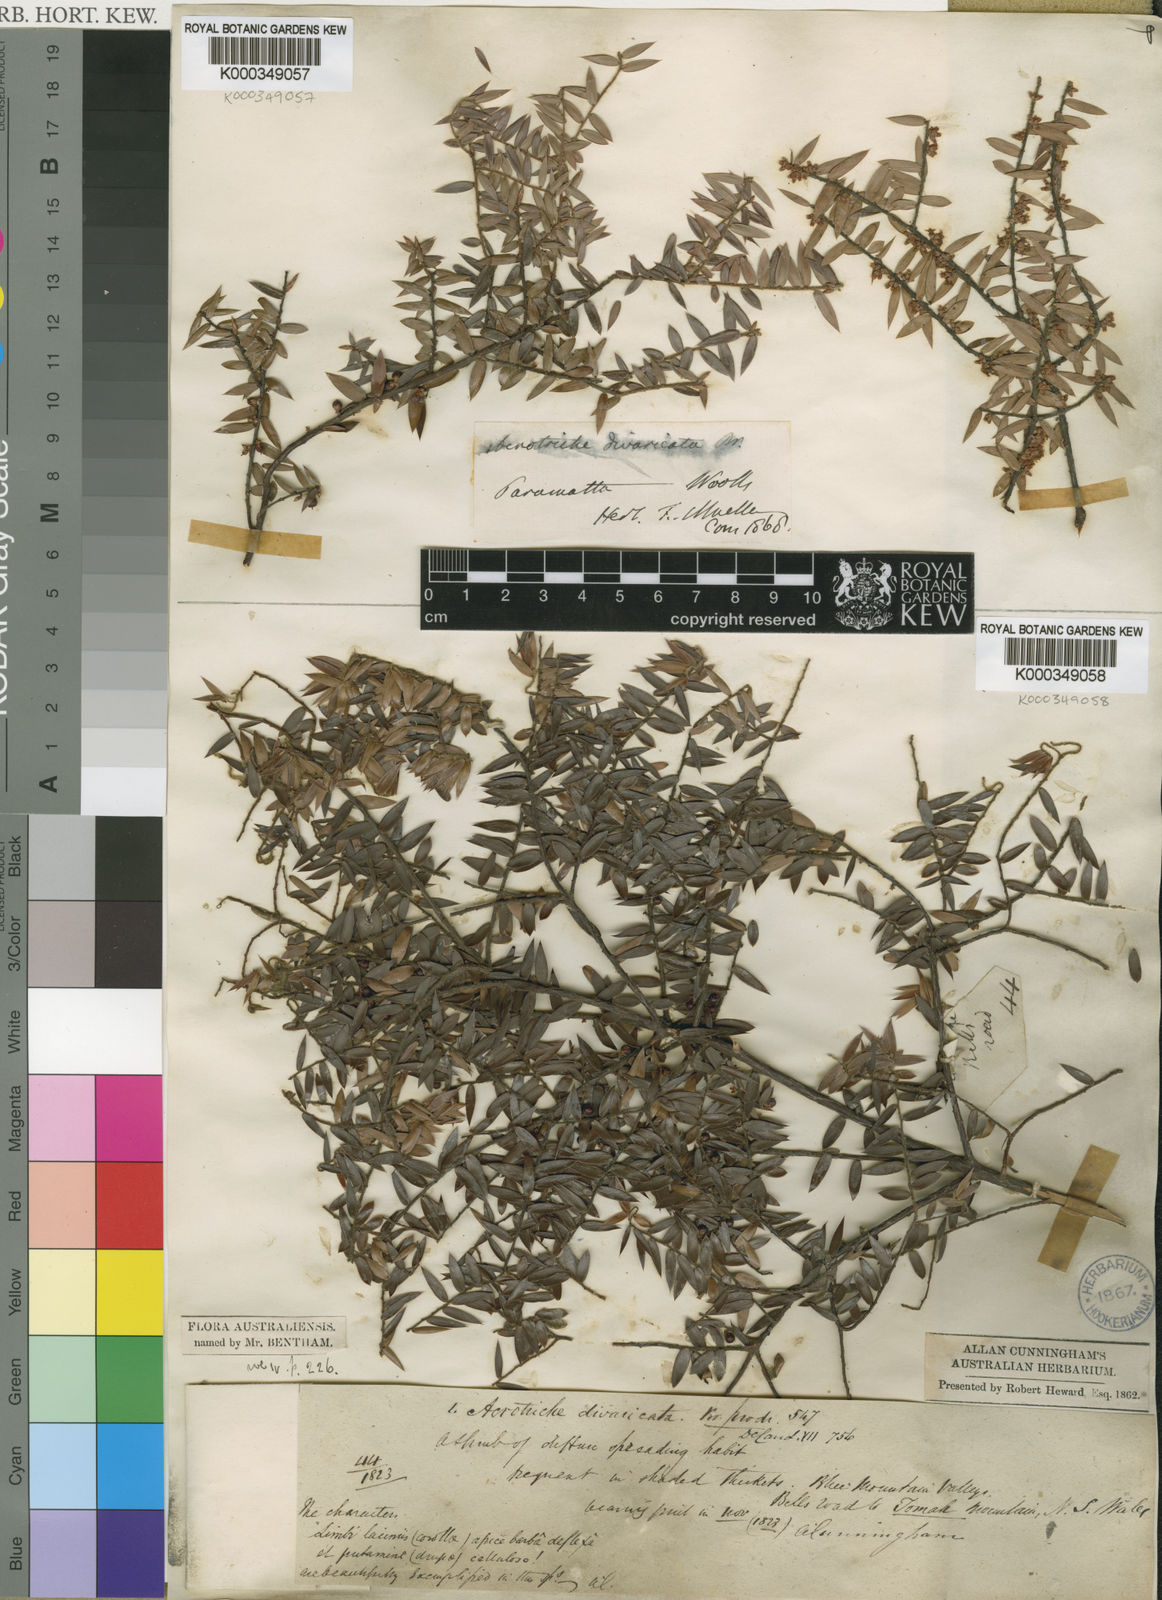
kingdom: Plantae
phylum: Tracheophyta
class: Magnoliopsida
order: Ericales
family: Ericaceae
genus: Acrotriche
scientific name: Acrotriche divaricata
